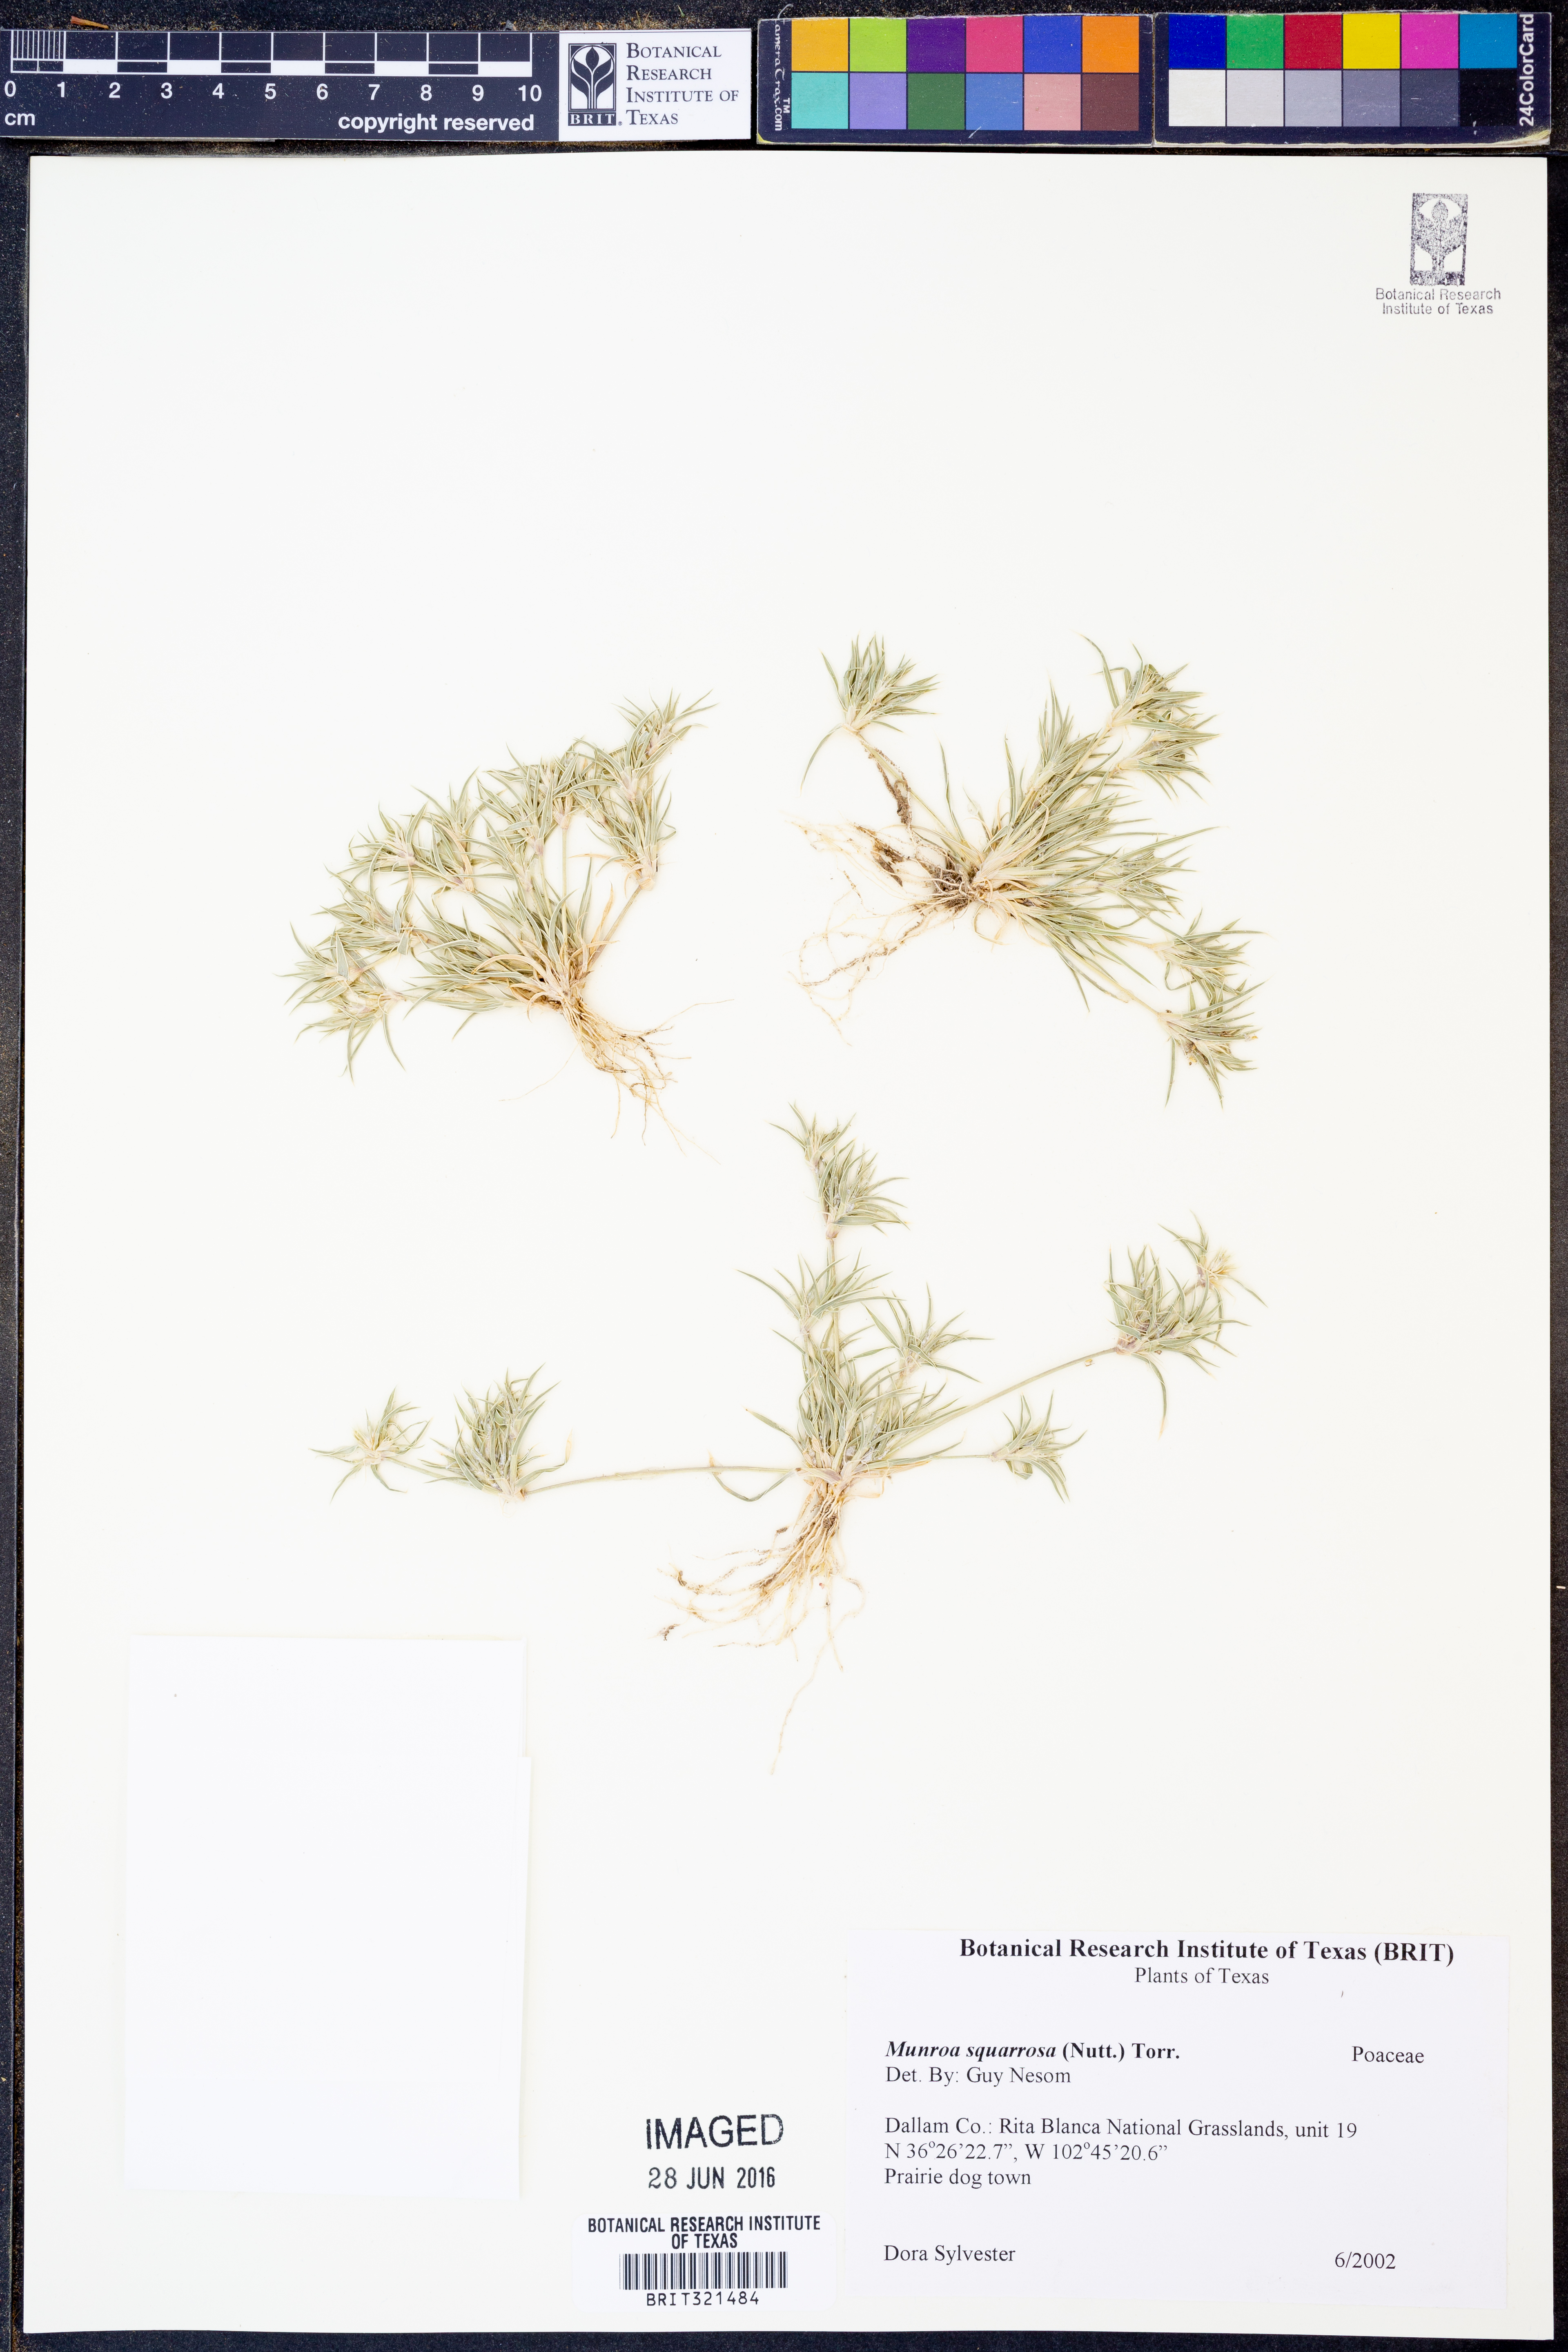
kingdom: Plantae
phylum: Tracheophyta
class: Liliopsida
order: Poales
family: Poaceae
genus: Munroa
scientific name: Munroa squarrosa
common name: False buffalo grass
